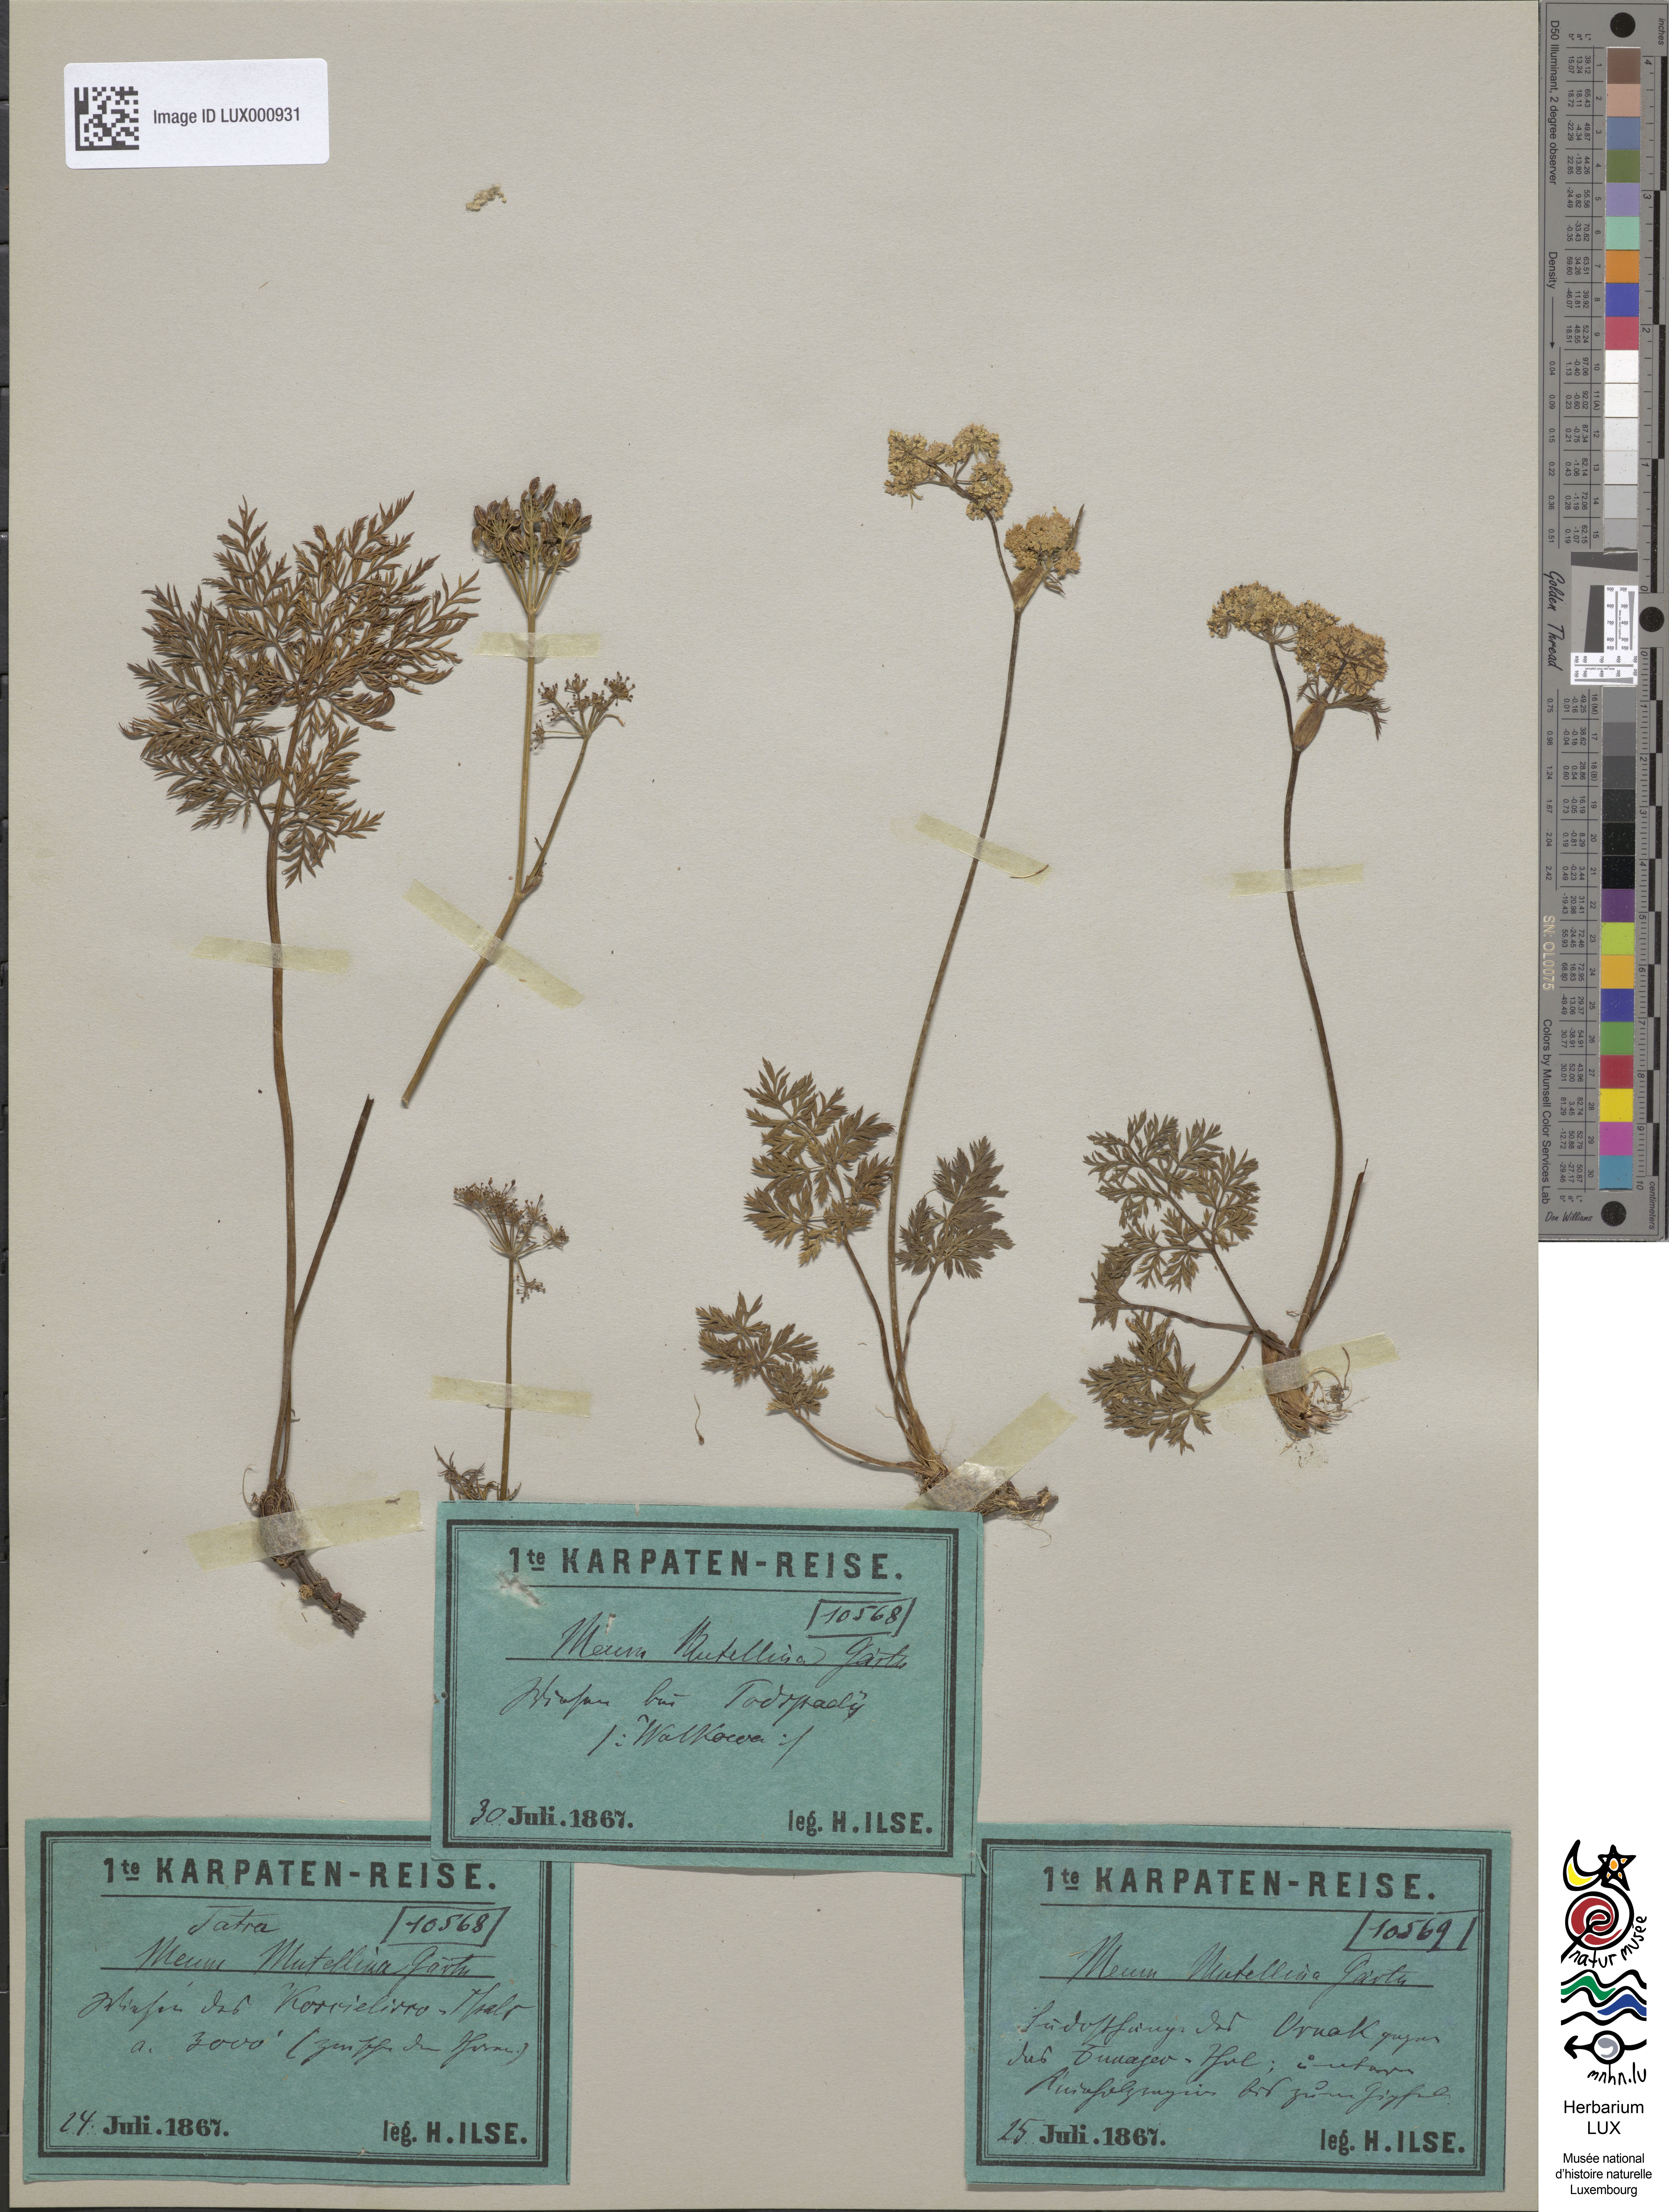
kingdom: Plantae
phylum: Tracheophyta
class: Magnoliopsida
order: Apiales
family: Apiaceae
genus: Mutellina
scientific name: Mutellina adonidifolia
